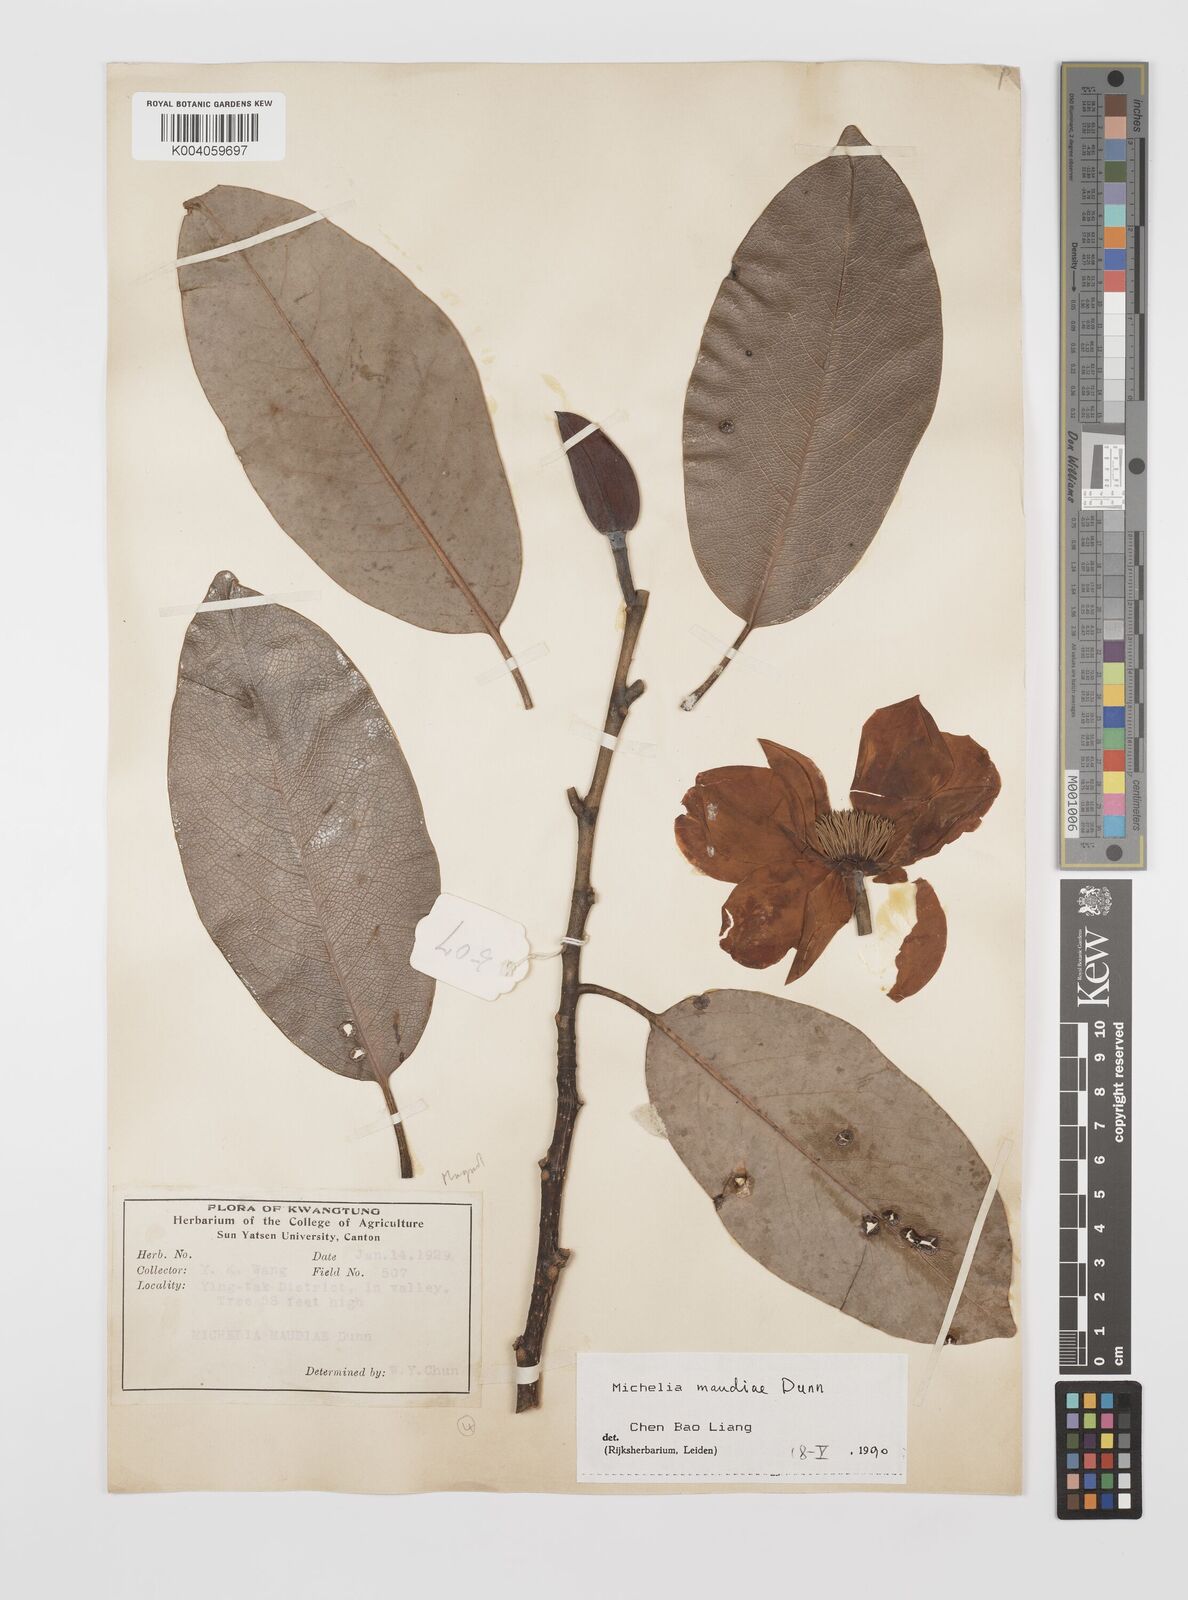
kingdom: Plantae
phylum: Tracheophyta
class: Magnoliopsida
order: Magnoliales
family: Magnoliaceae
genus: Magnolia
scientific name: Magnolia maudiae
